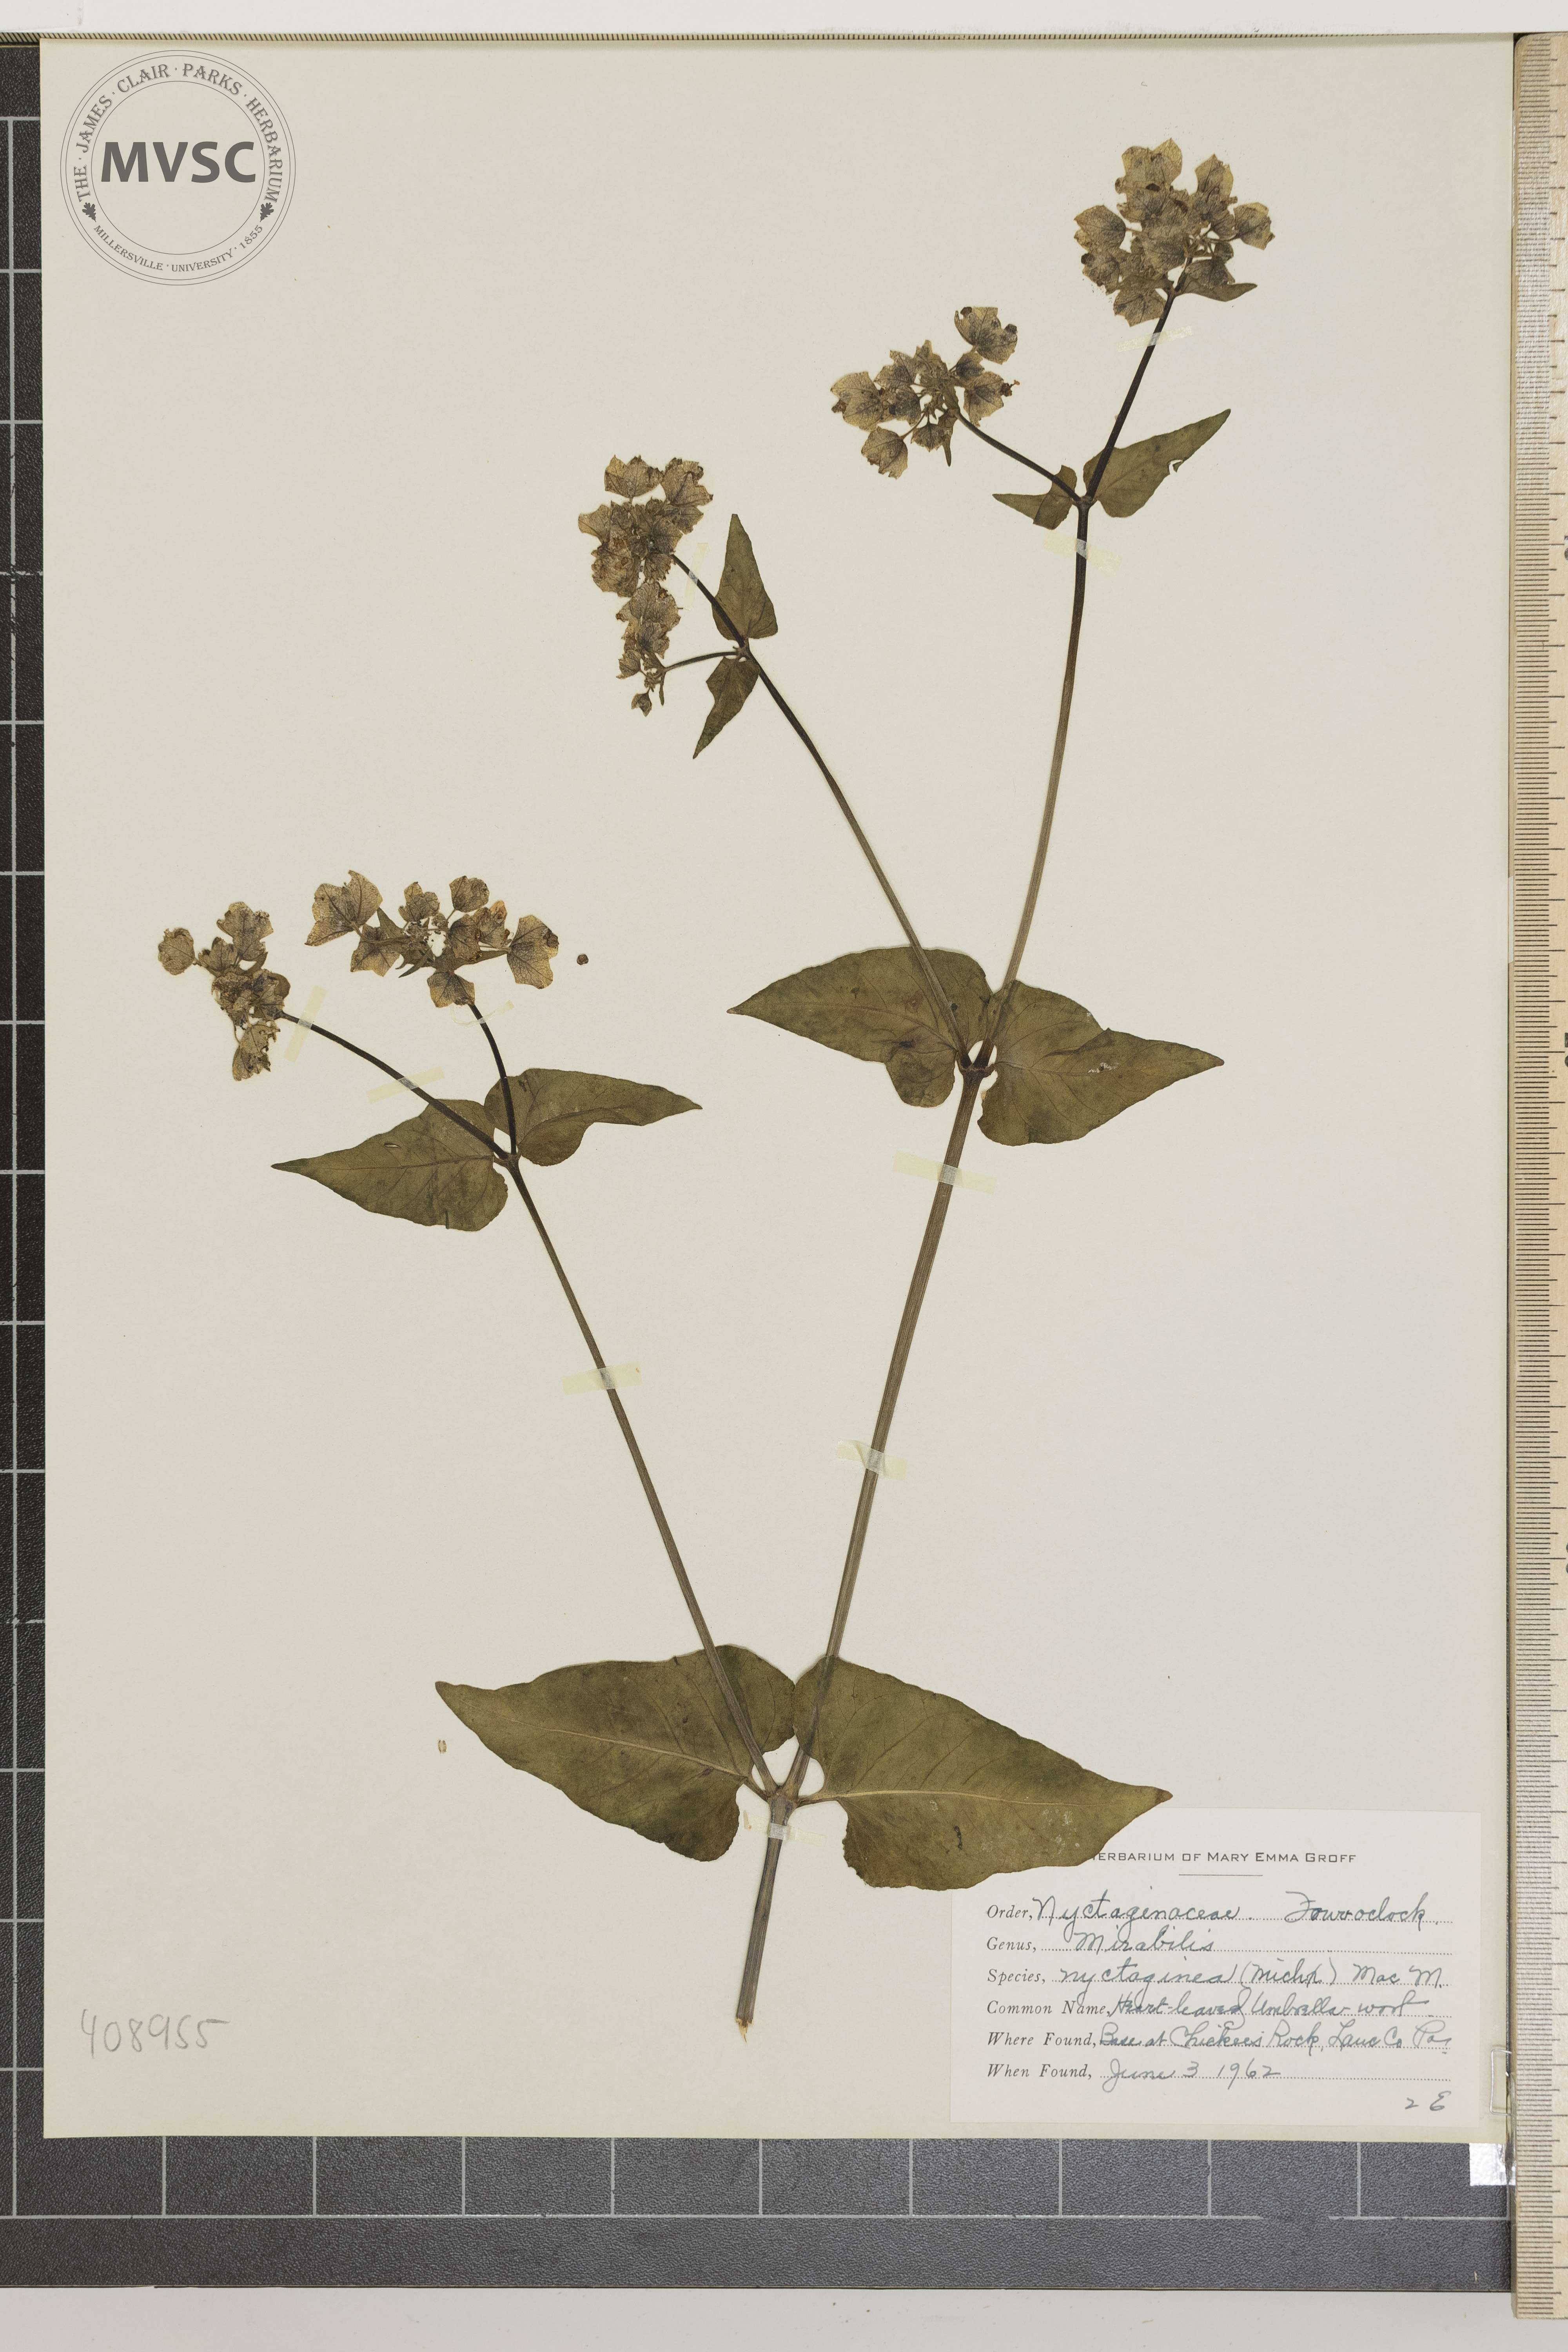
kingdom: Plantae
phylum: Tracheophyta
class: Magnoliopsida
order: Caryophyllales
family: Nyctaginaceae
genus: Mirabilis
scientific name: Mirabilis nyctaginea
